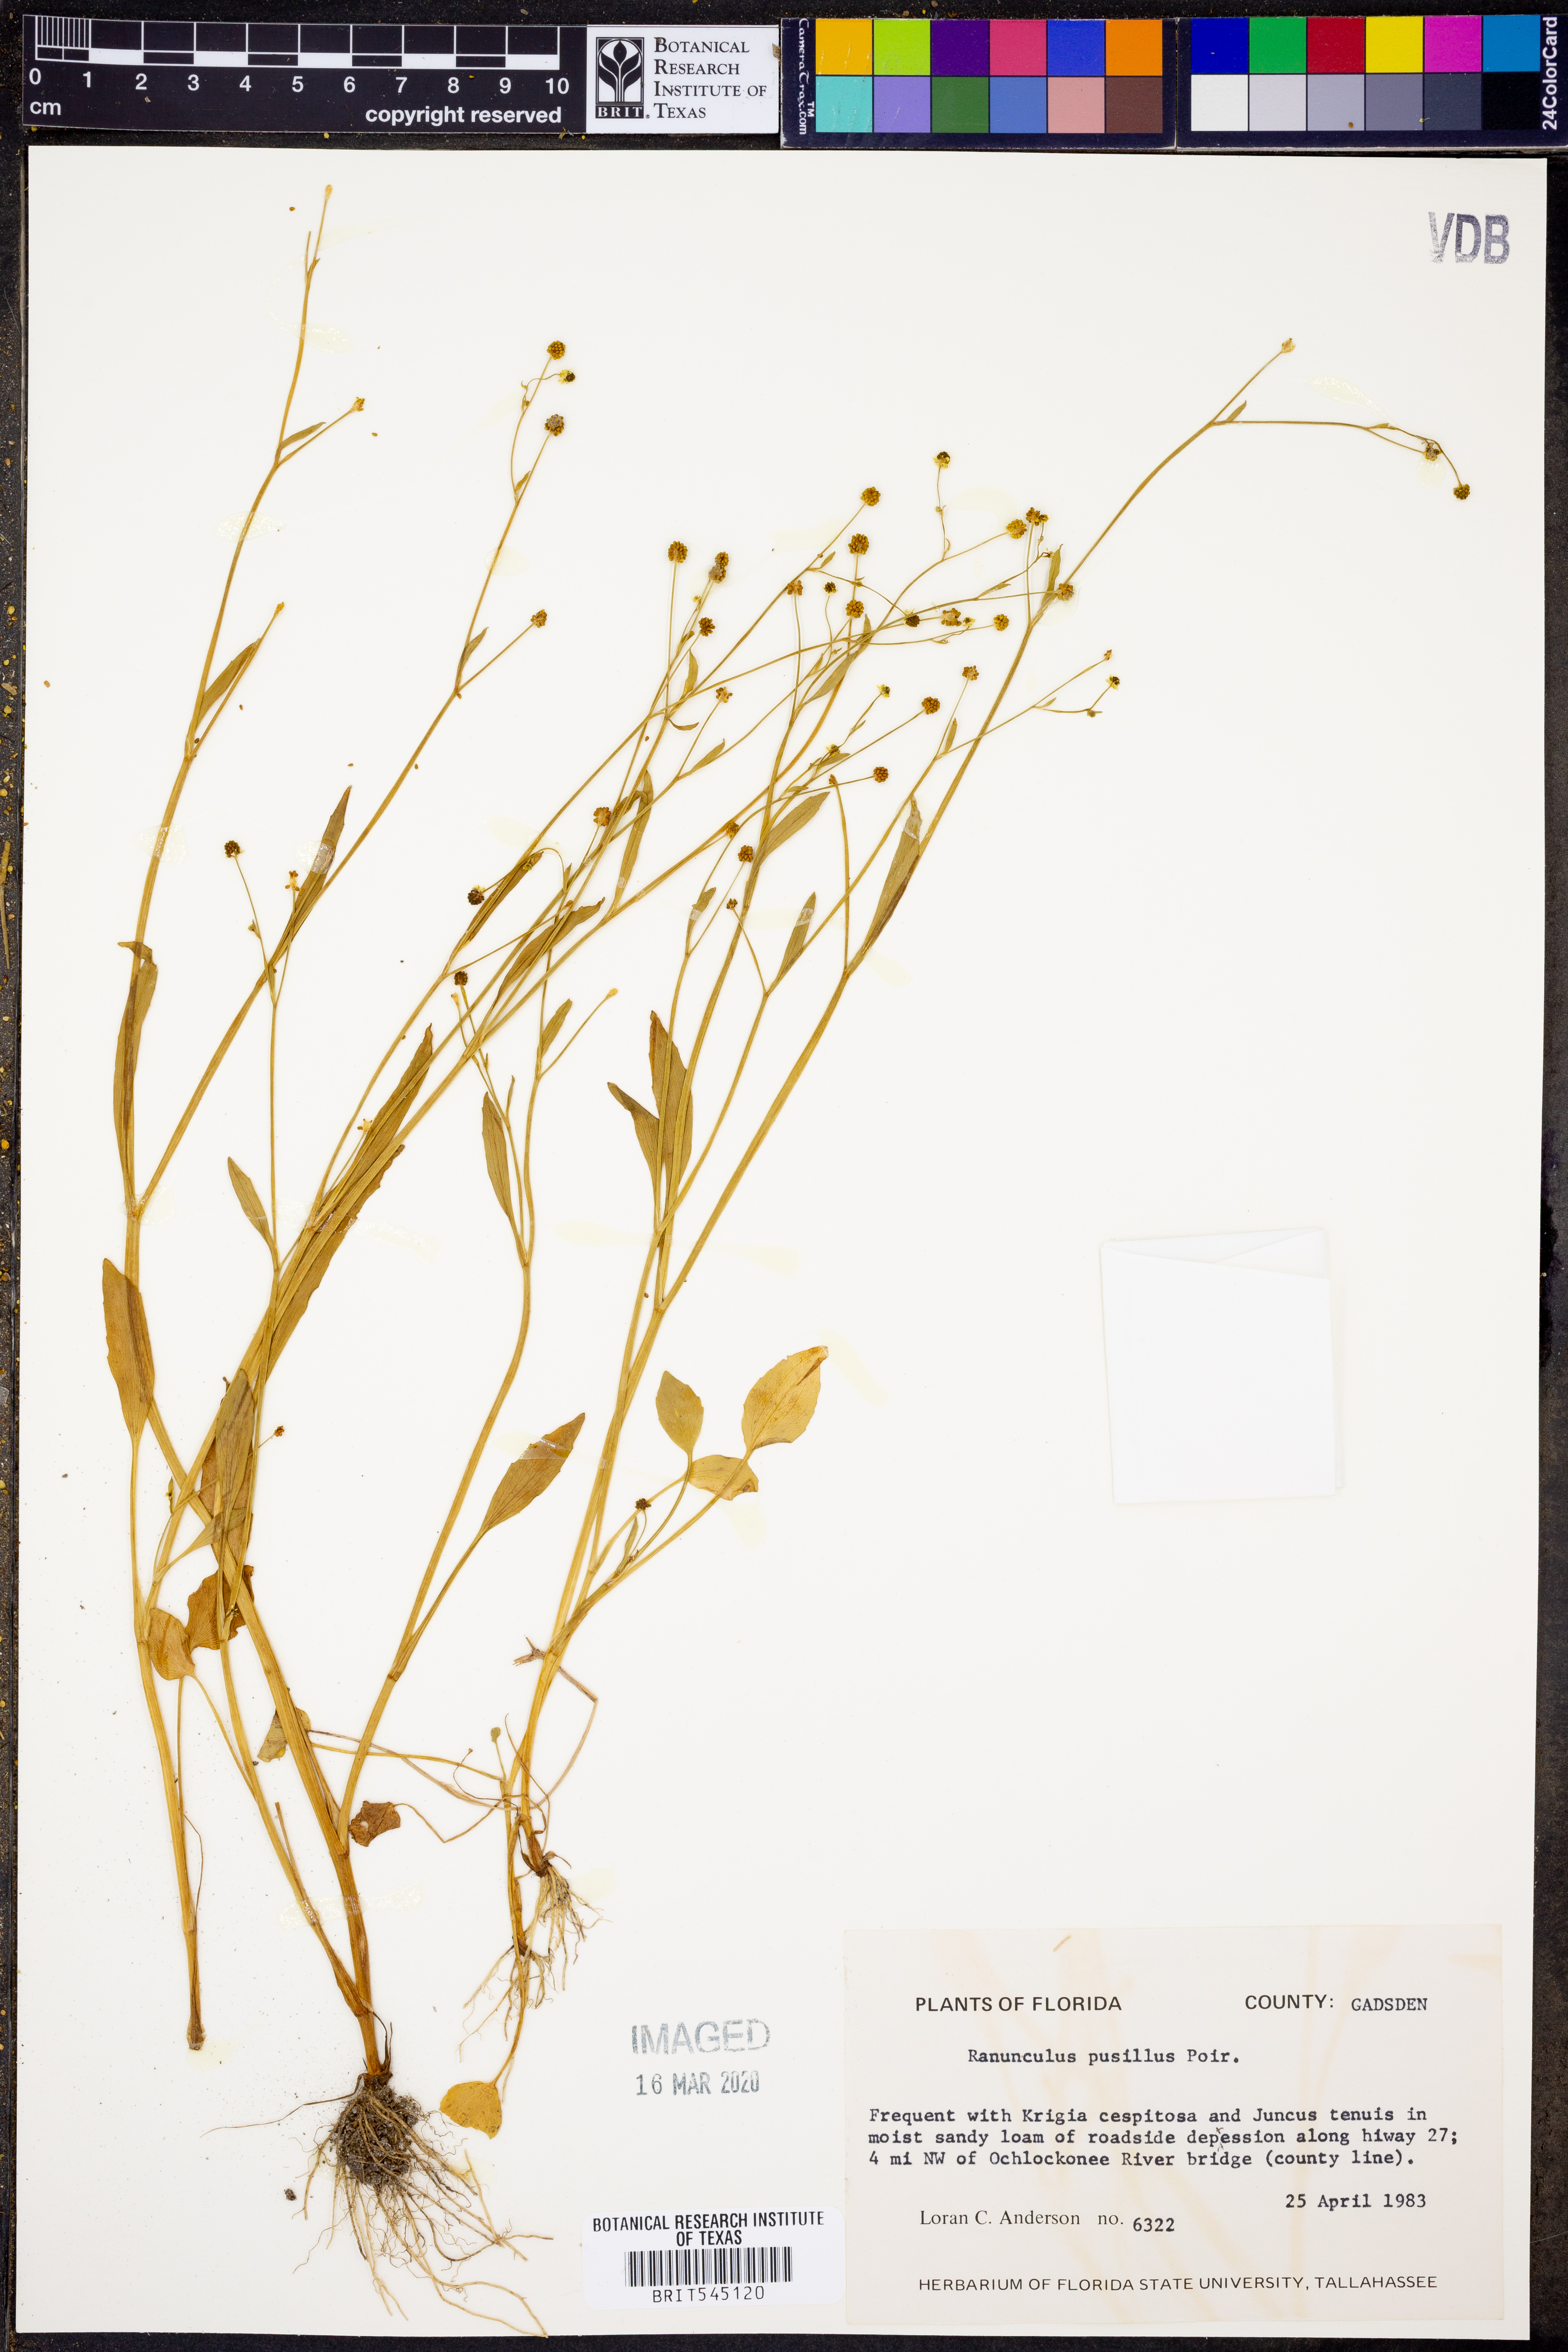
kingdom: Plantae
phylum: Tracheophyta
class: Magnoliopsida
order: Ranunculales
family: Ranunculaceae
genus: Ranunculus
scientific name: Ranunculus pusillus
